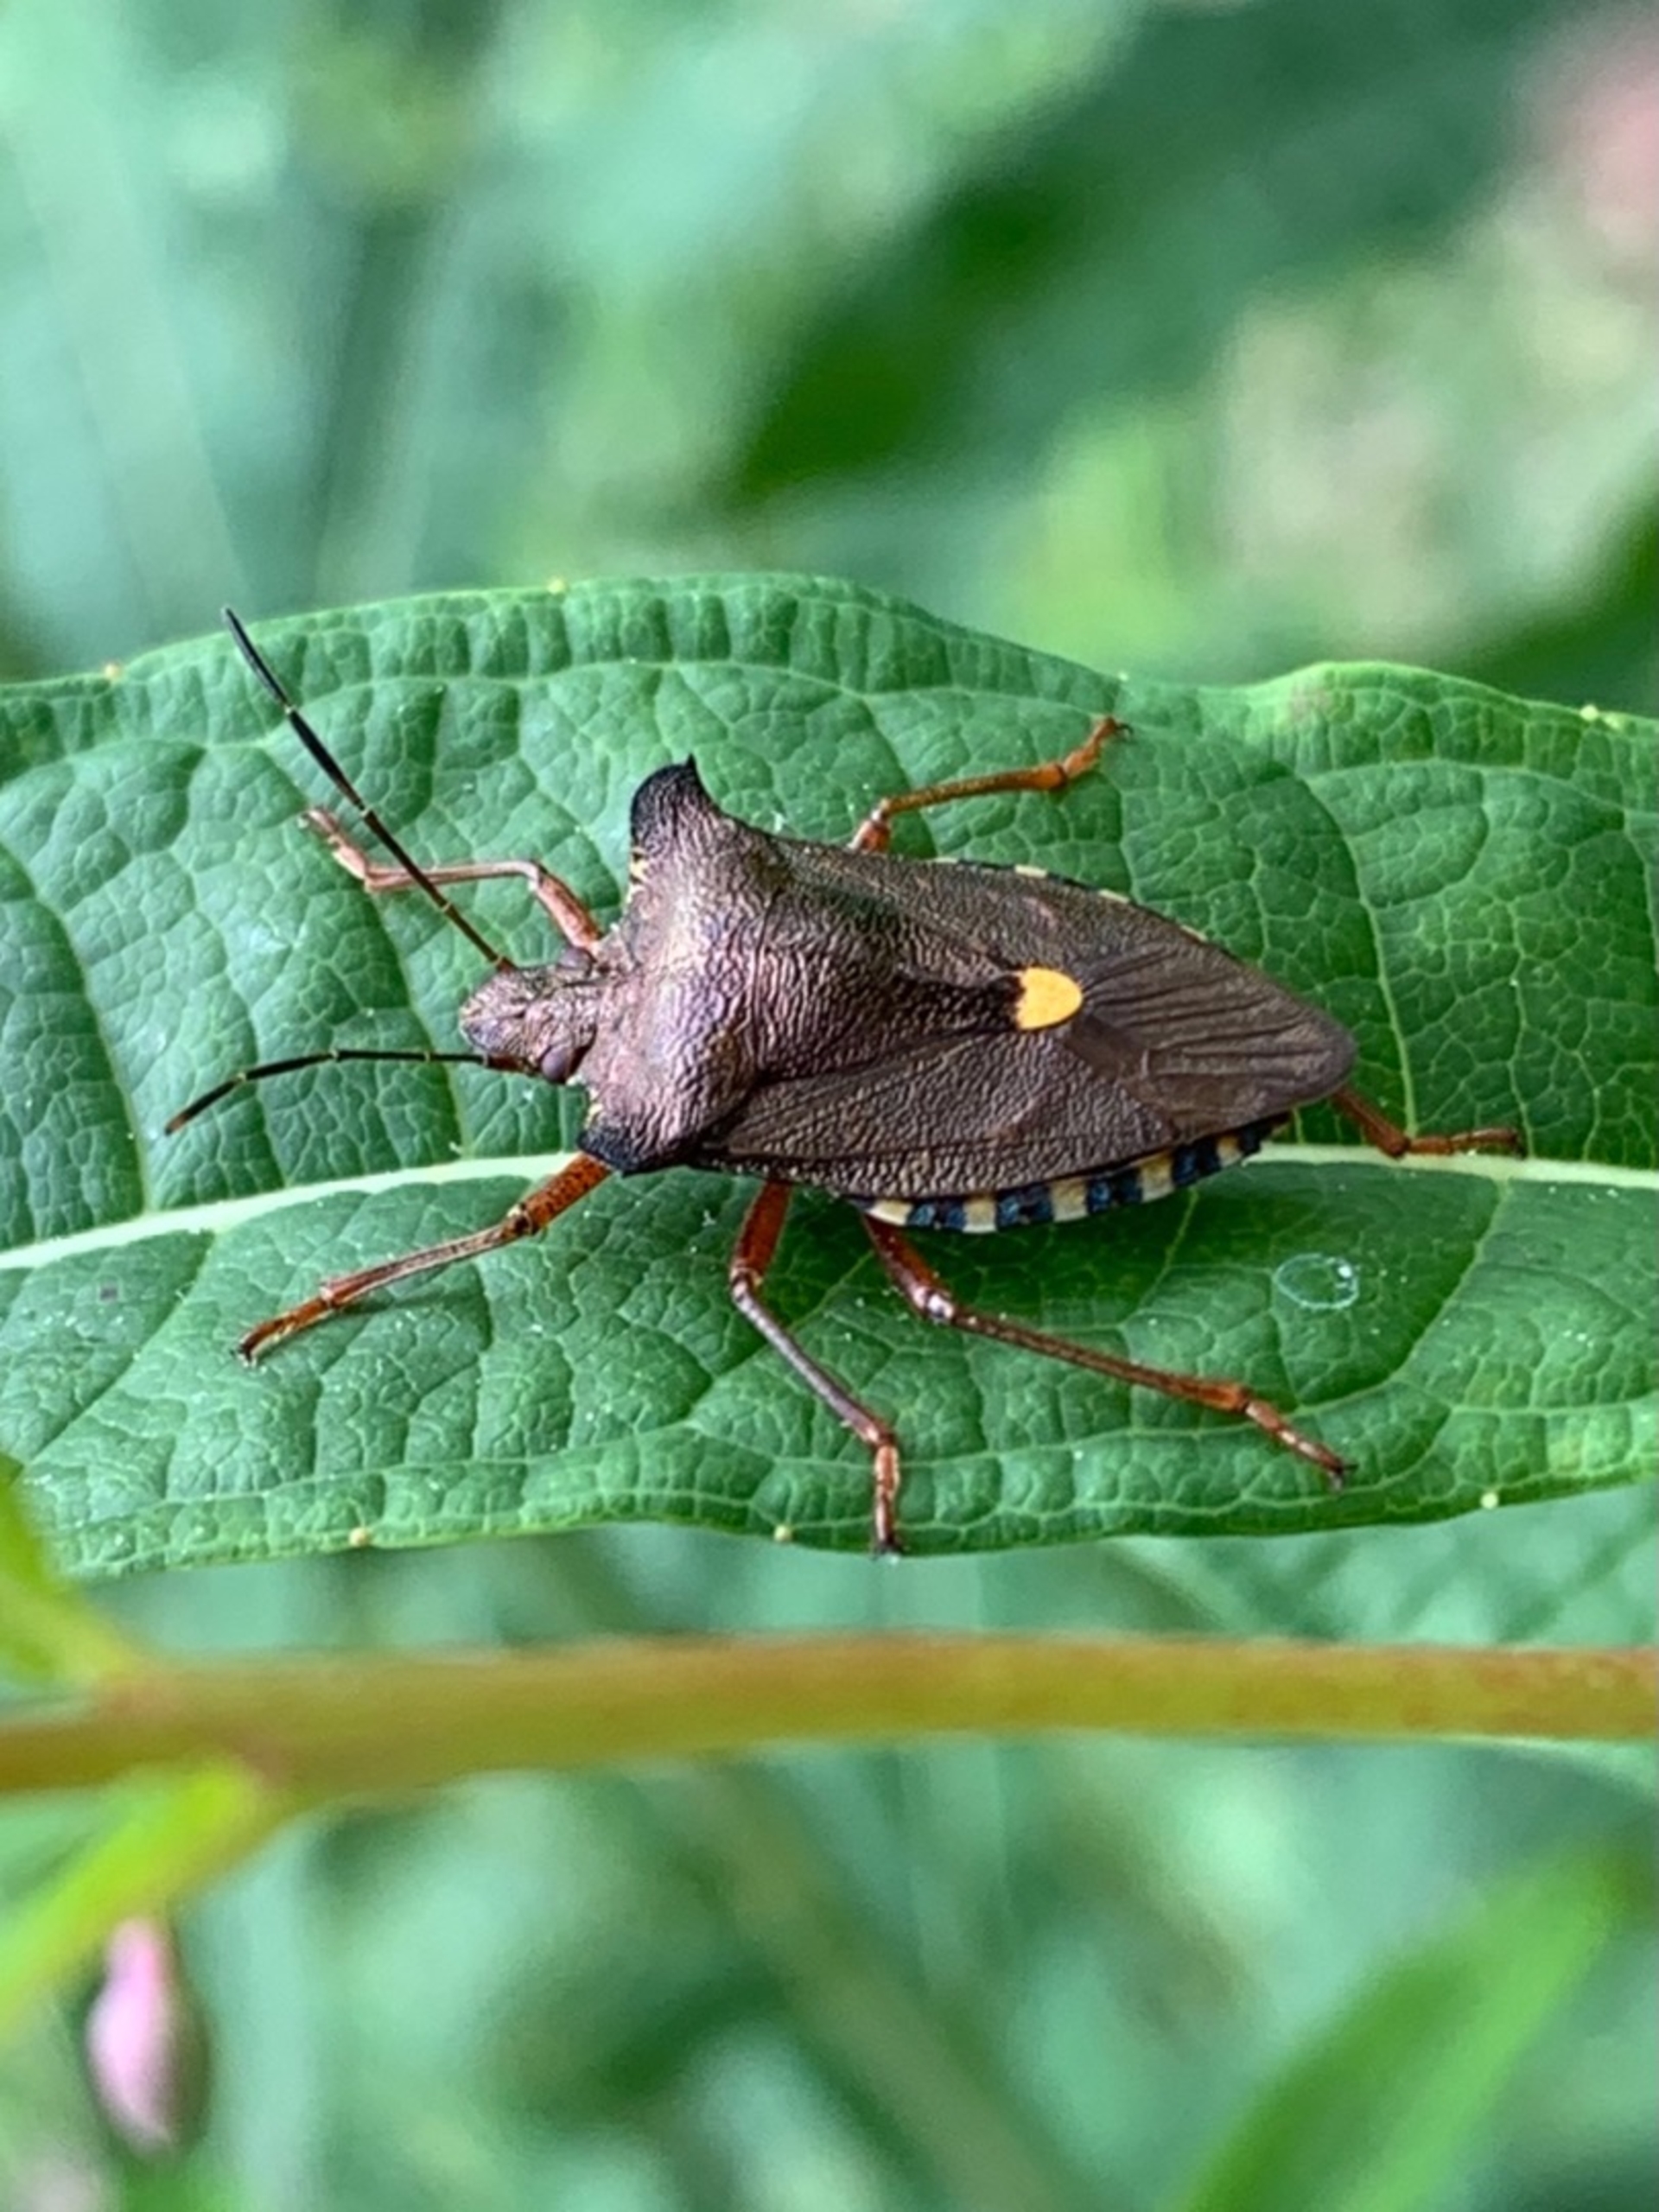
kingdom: Animalia
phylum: Arthropoda
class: Insecta
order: Hemiptera
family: Pentatomidae
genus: Pentatoma
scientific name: Pentatoma rufipes
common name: Rødbenet bredtæge
